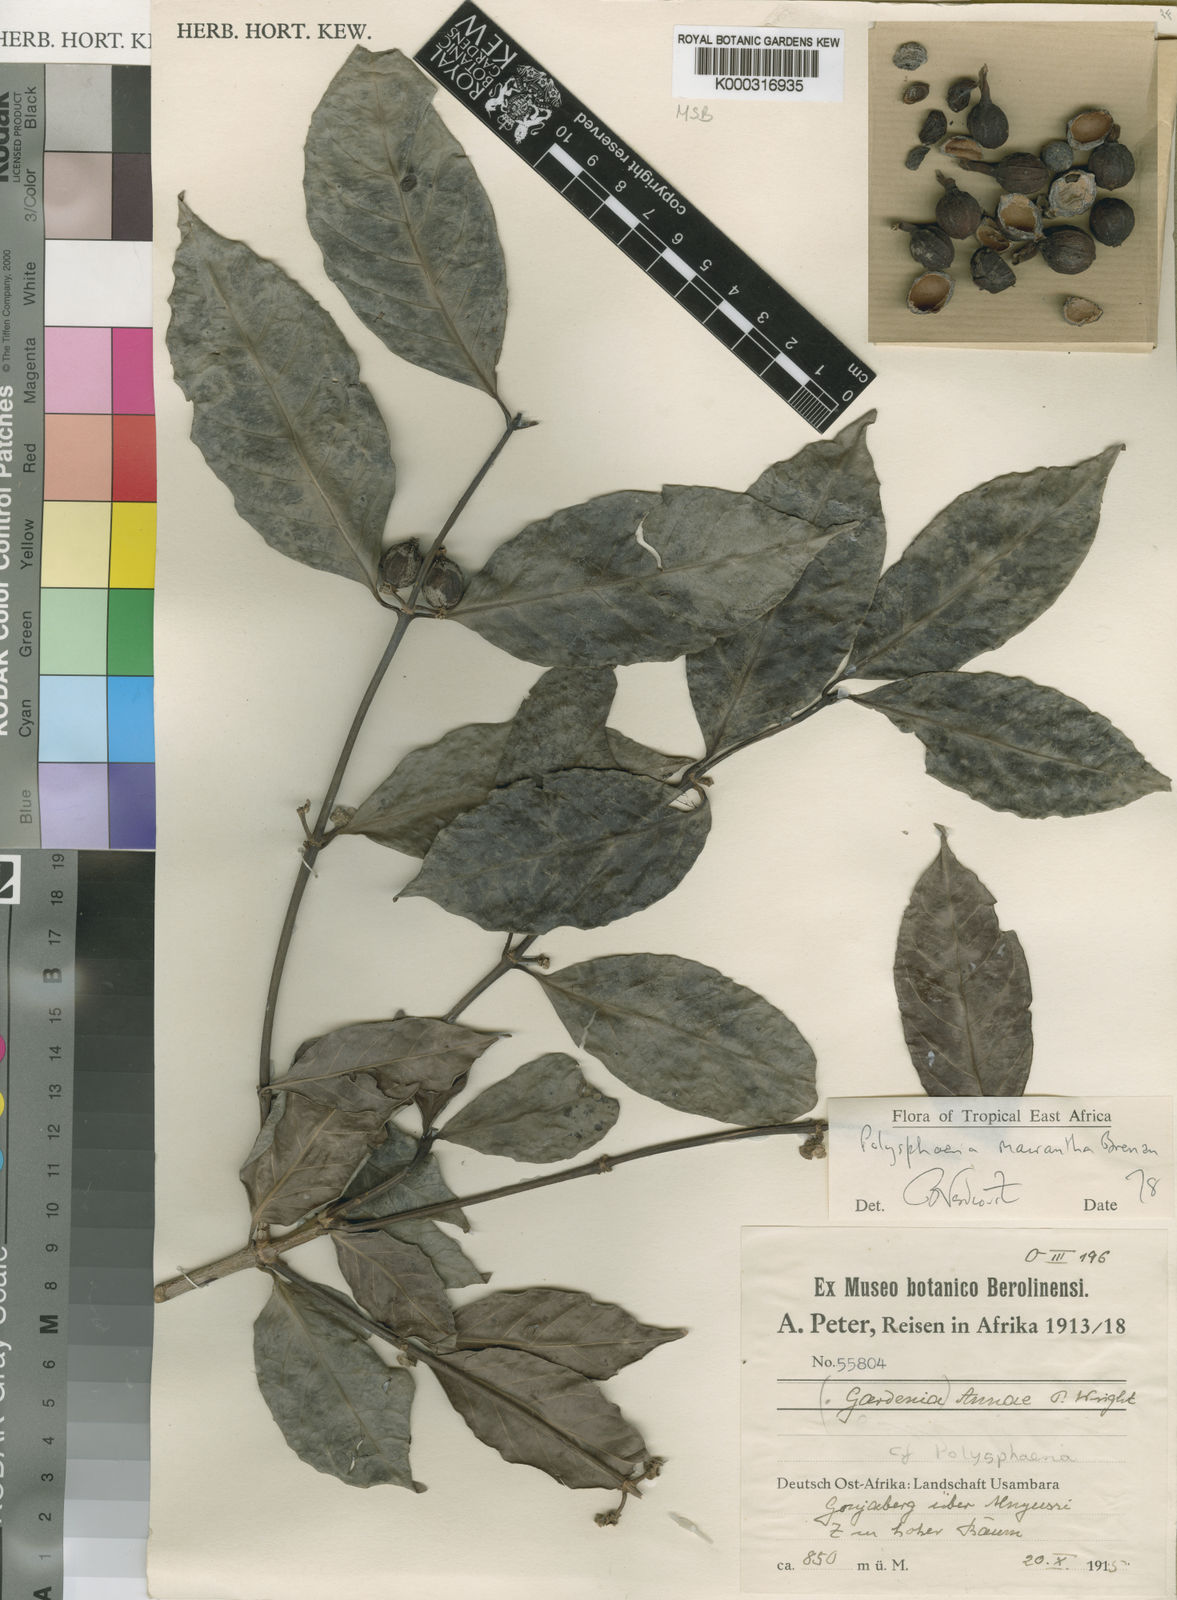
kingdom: Plantae
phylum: Tracheophyta
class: Magnoliopsida
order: Gentianales
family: Rubiaceae
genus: Polysphaeria
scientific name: Polysphaeria macrantha
